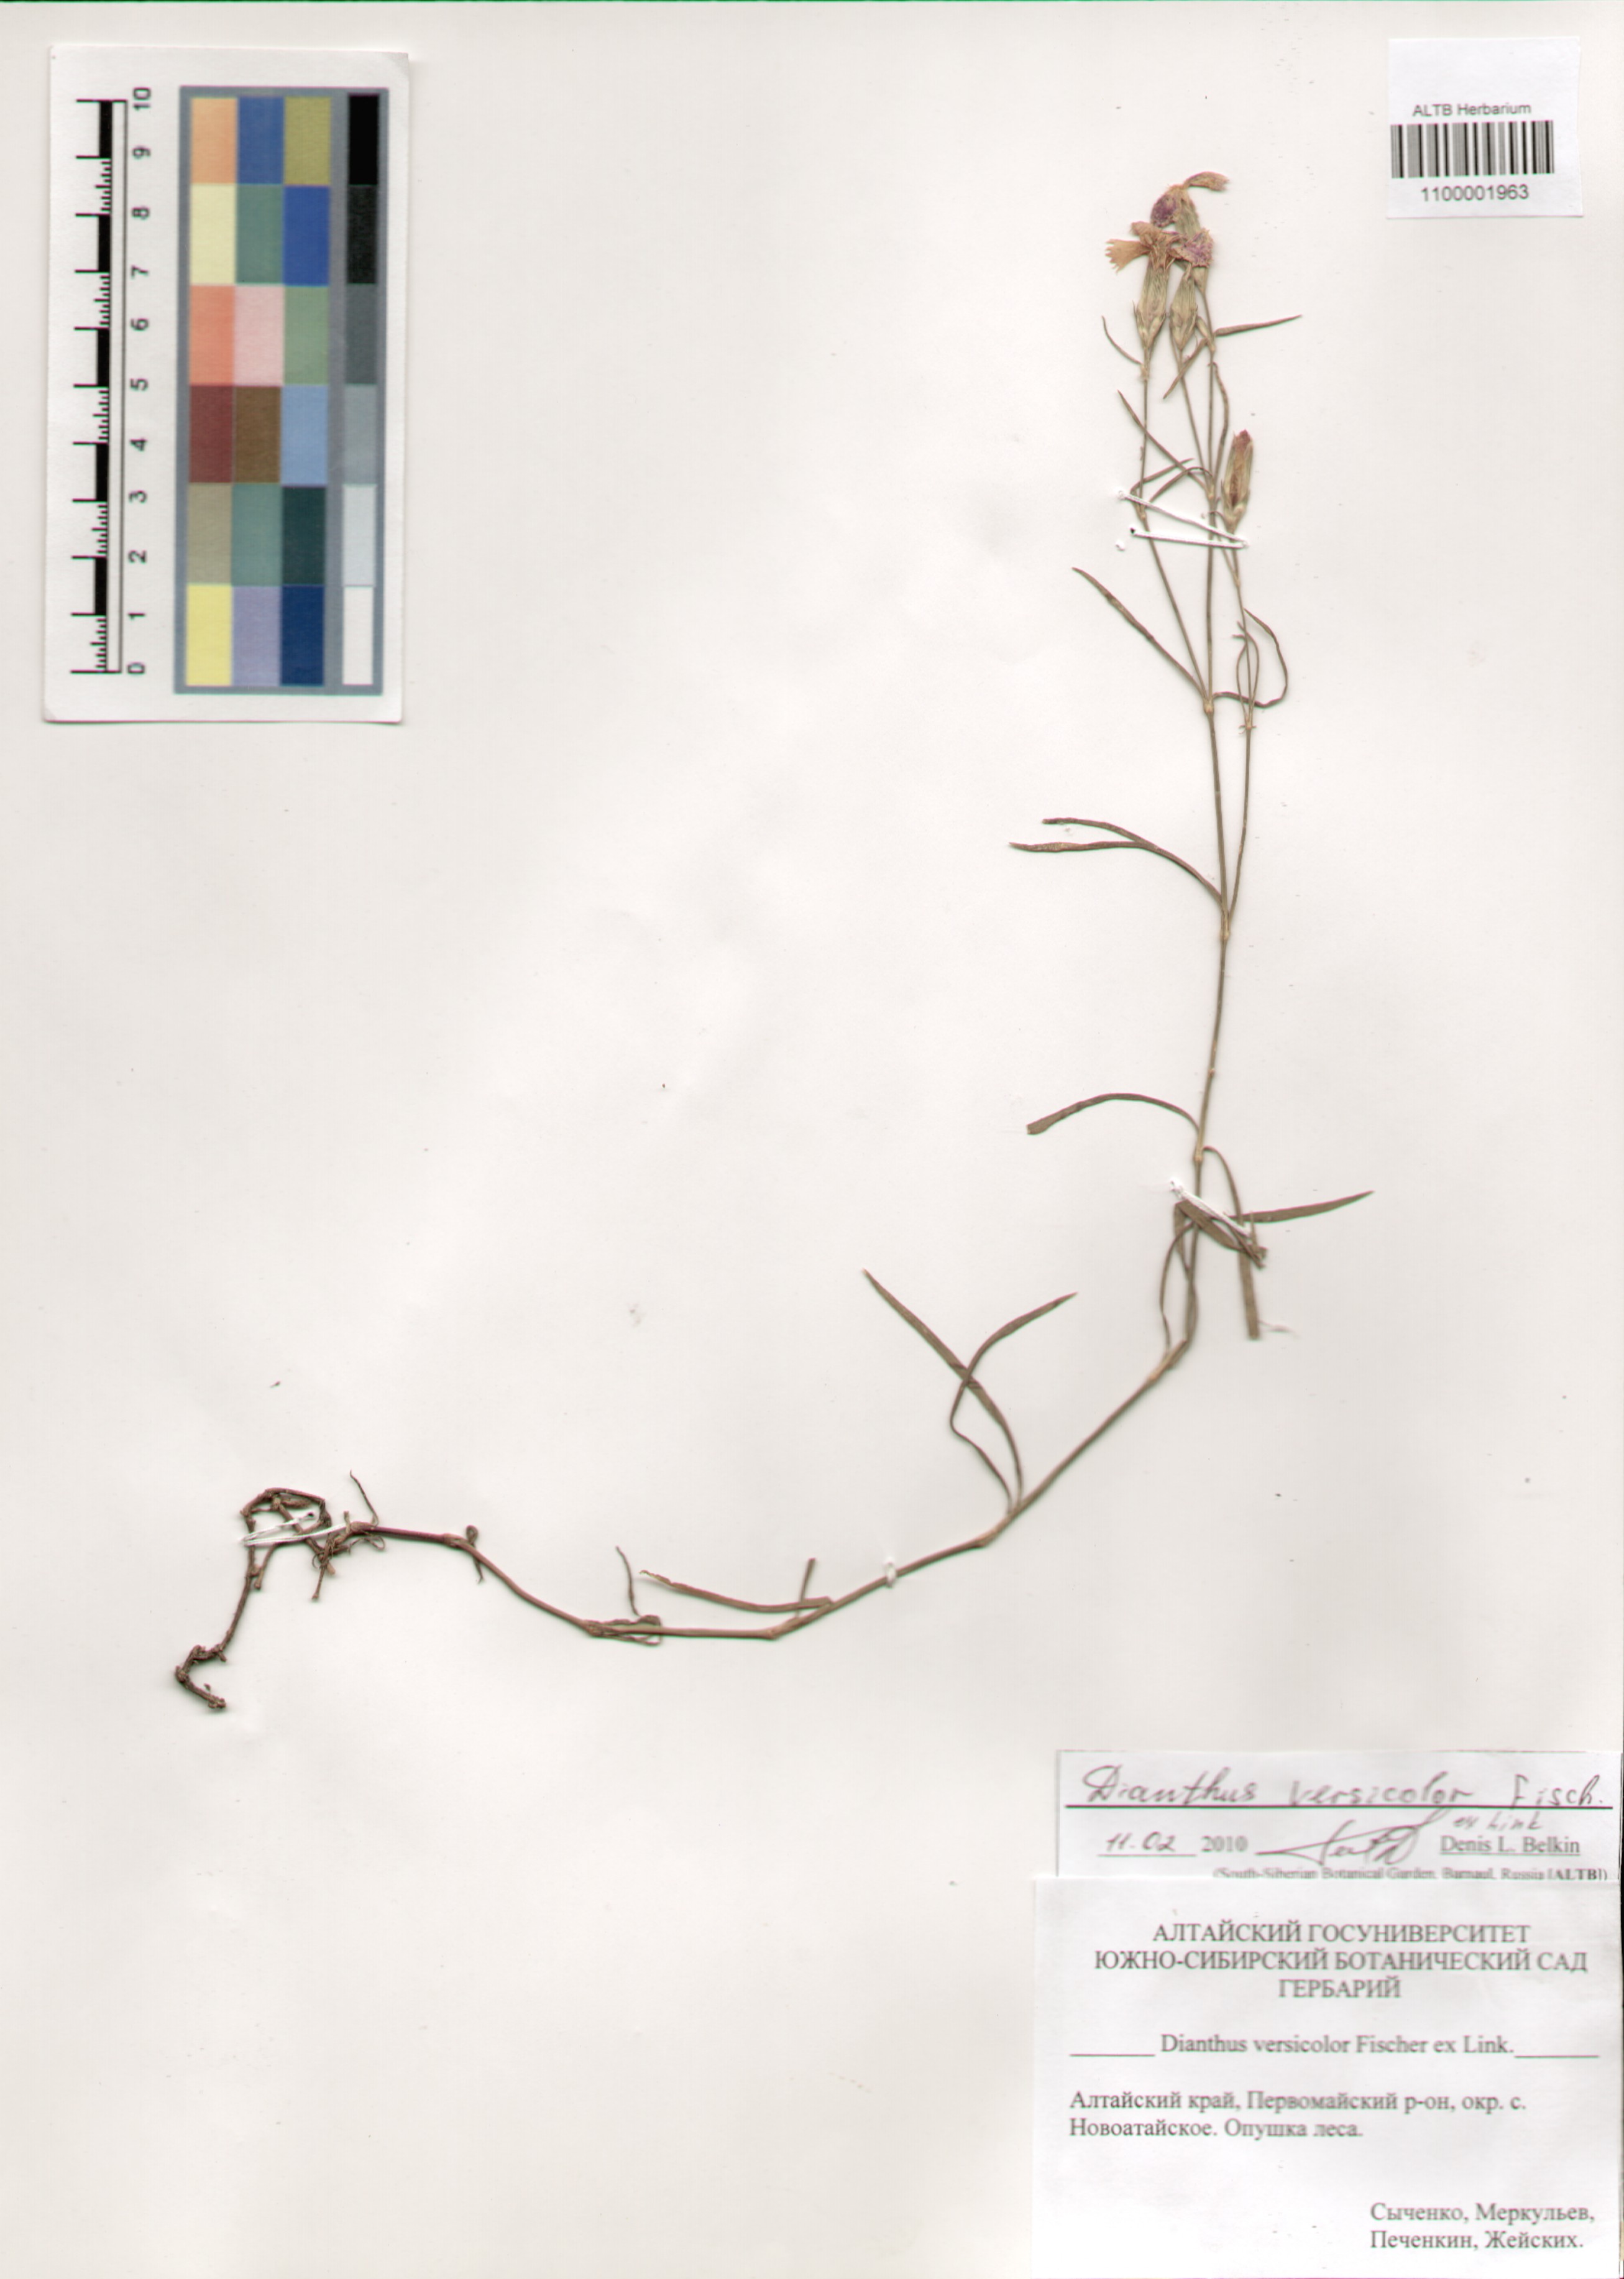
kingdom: Plantae
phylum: Tracheophyta
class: Magnoliopsida
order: Caryophyllales
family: Caryophyllaceae
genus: Dianthus
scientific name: Dianthus chinensis
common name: Rainbow pink
